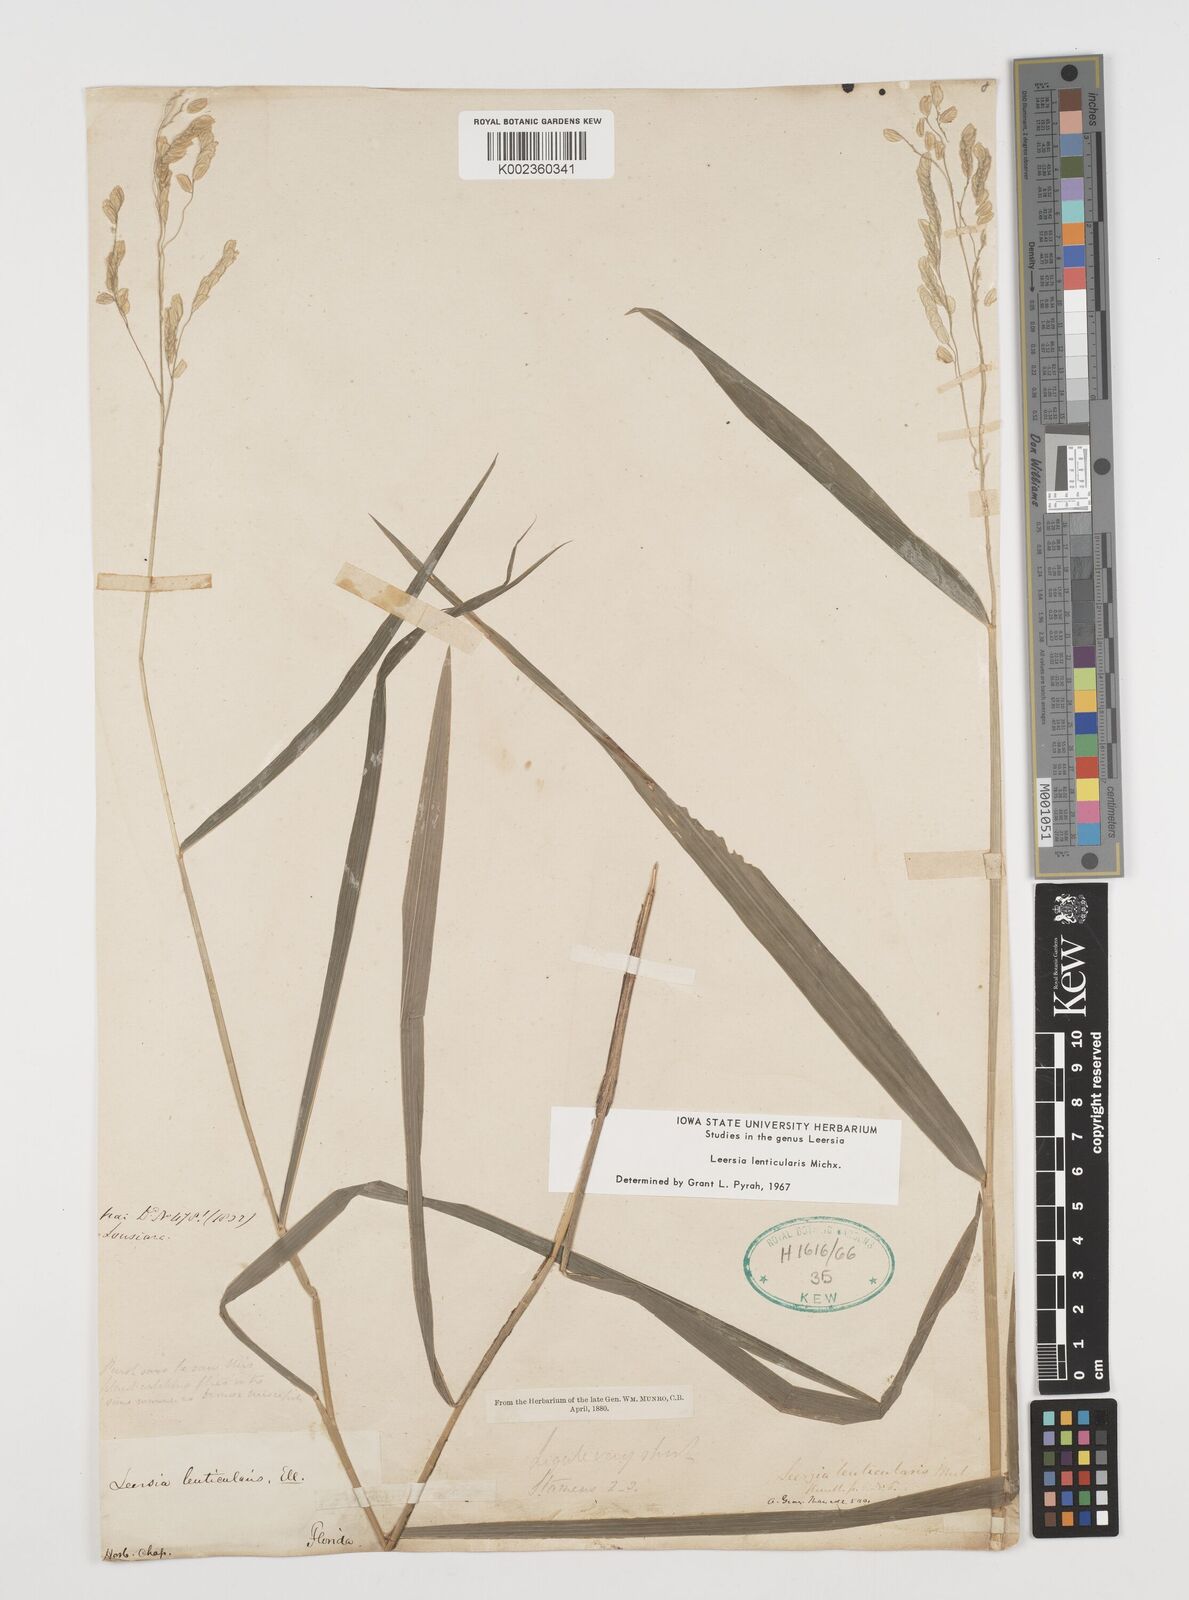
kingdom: Plantae
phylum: Tracheophyta
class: Liliopsida
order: Poales
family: Poaceae
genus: Leersia
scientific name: Leersia lenticularis
